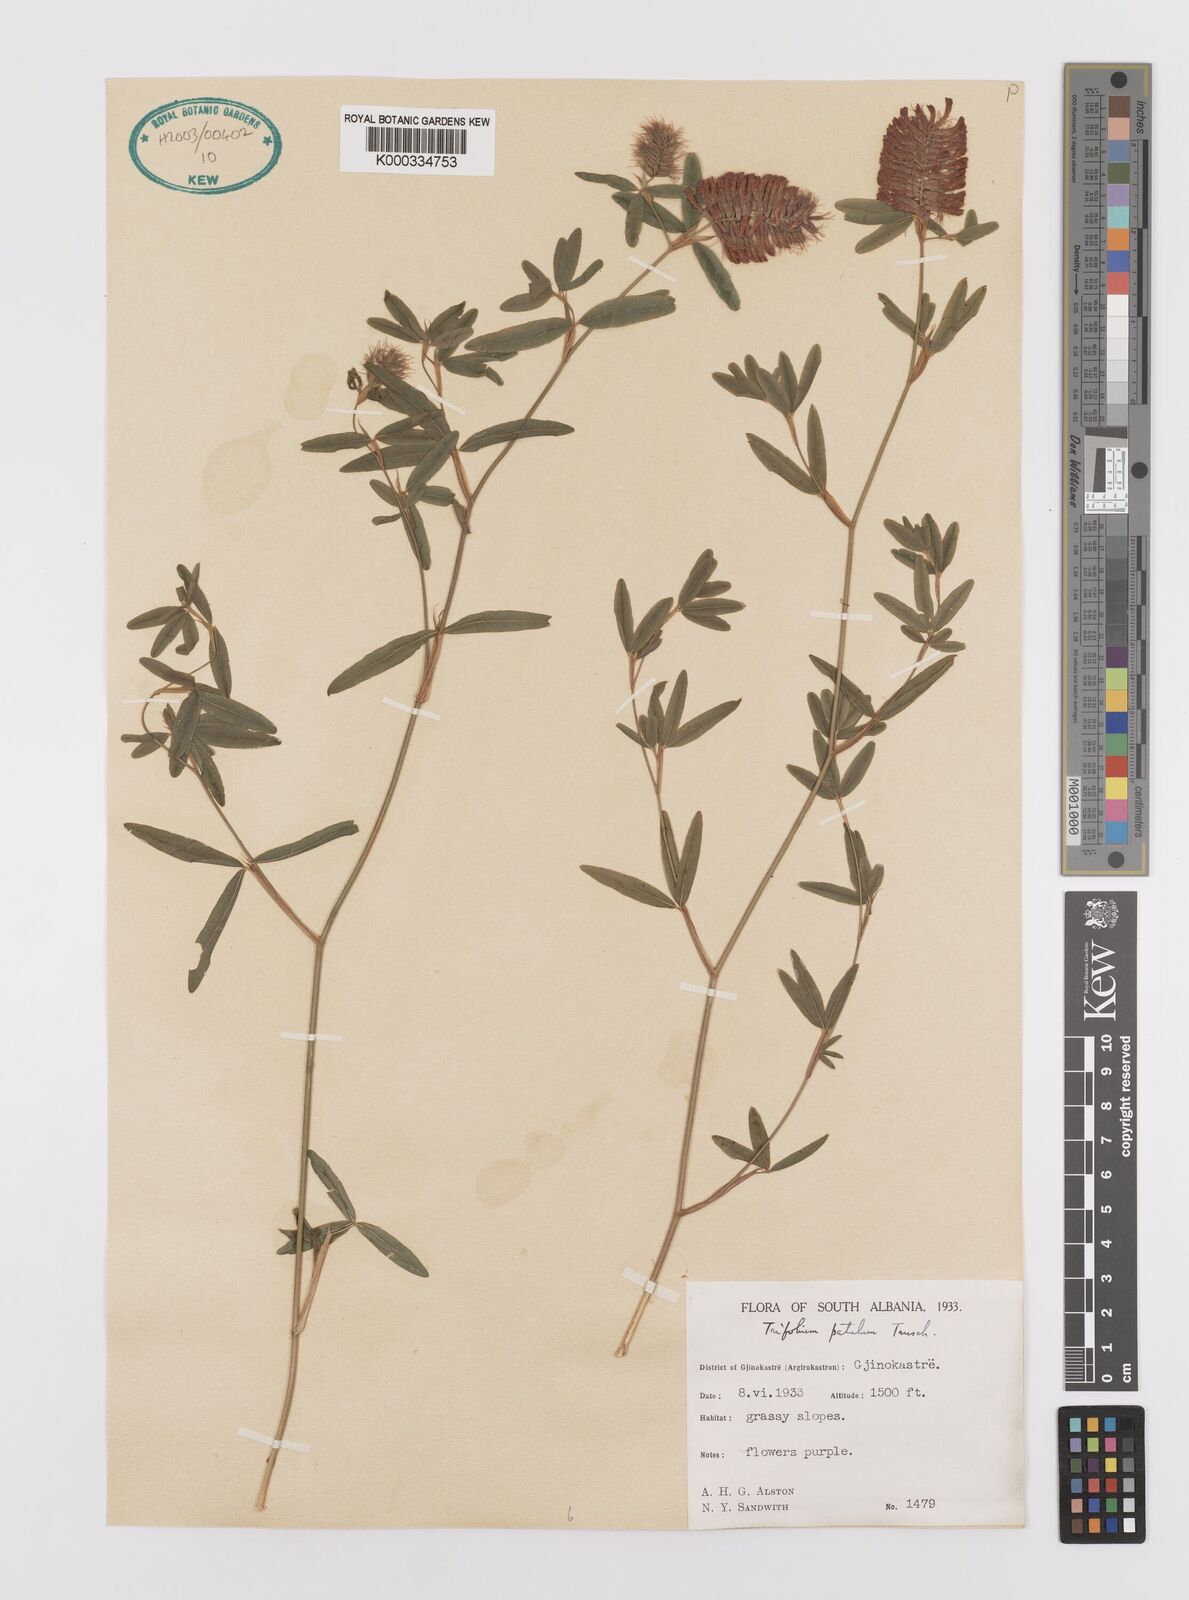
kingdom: Plantae
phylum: Tracheophyta
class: Magnoliopsida
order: Fabales
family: Fabaceae
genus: Trifolium
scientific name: Trifolium patulum
